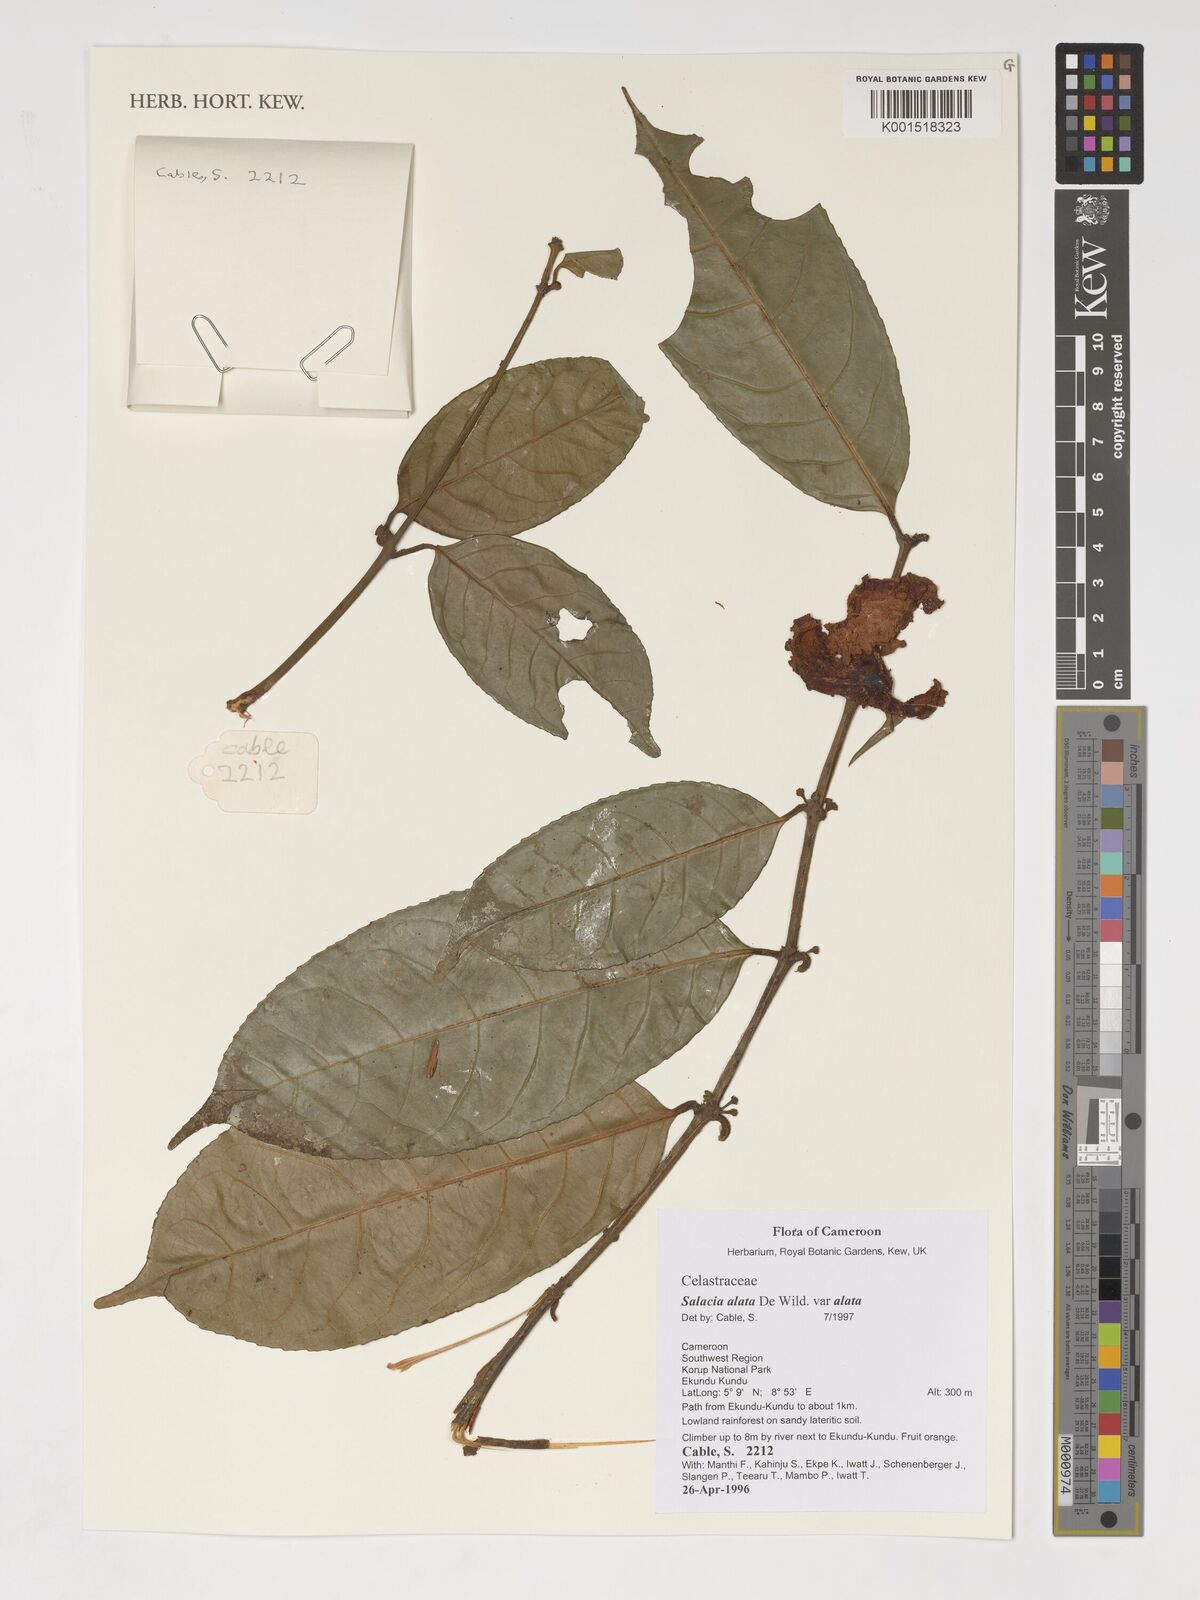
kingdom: Plantae
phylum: Tracheophyta
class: Magnoliopsida
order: Celastrales
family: Celastraceae
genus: Salacia
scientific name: Salacia alata
